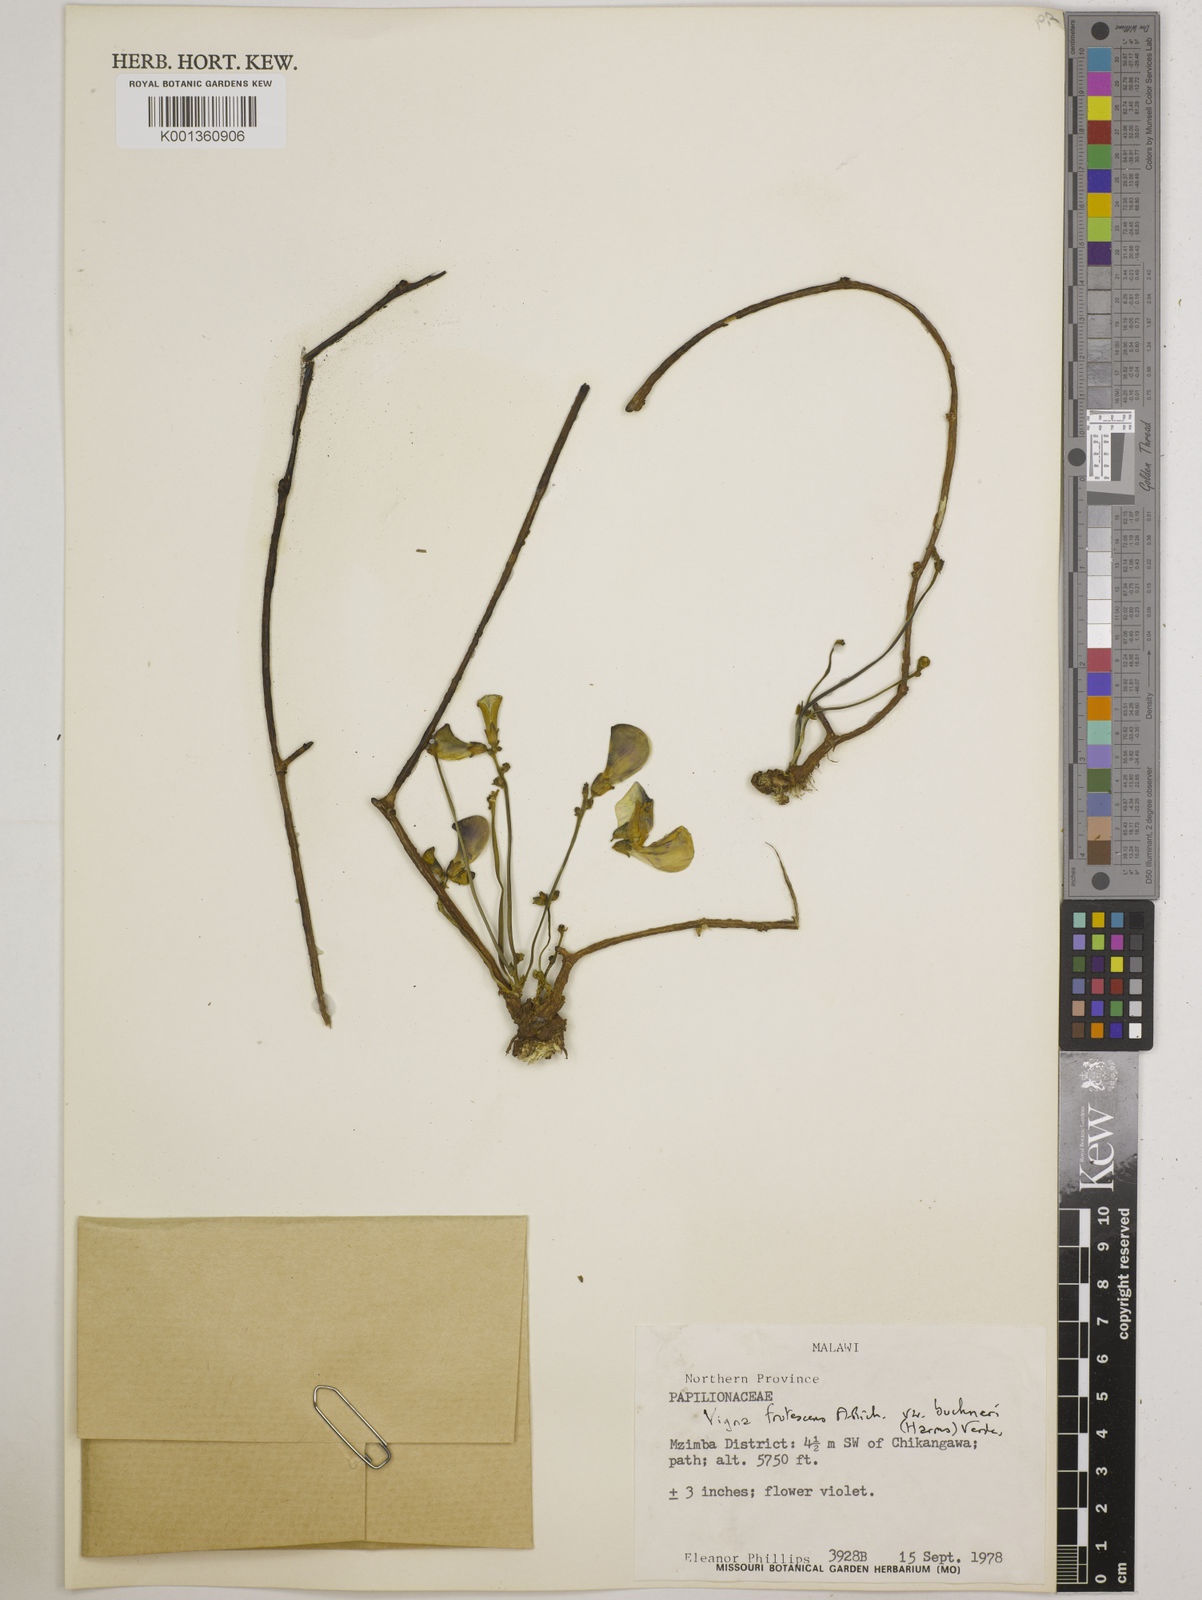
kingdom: Plantae
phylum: Tracheophyta
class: Magnoliopsida
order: Fabales
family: Fabaceae
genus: Vigna
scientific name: Vigna
